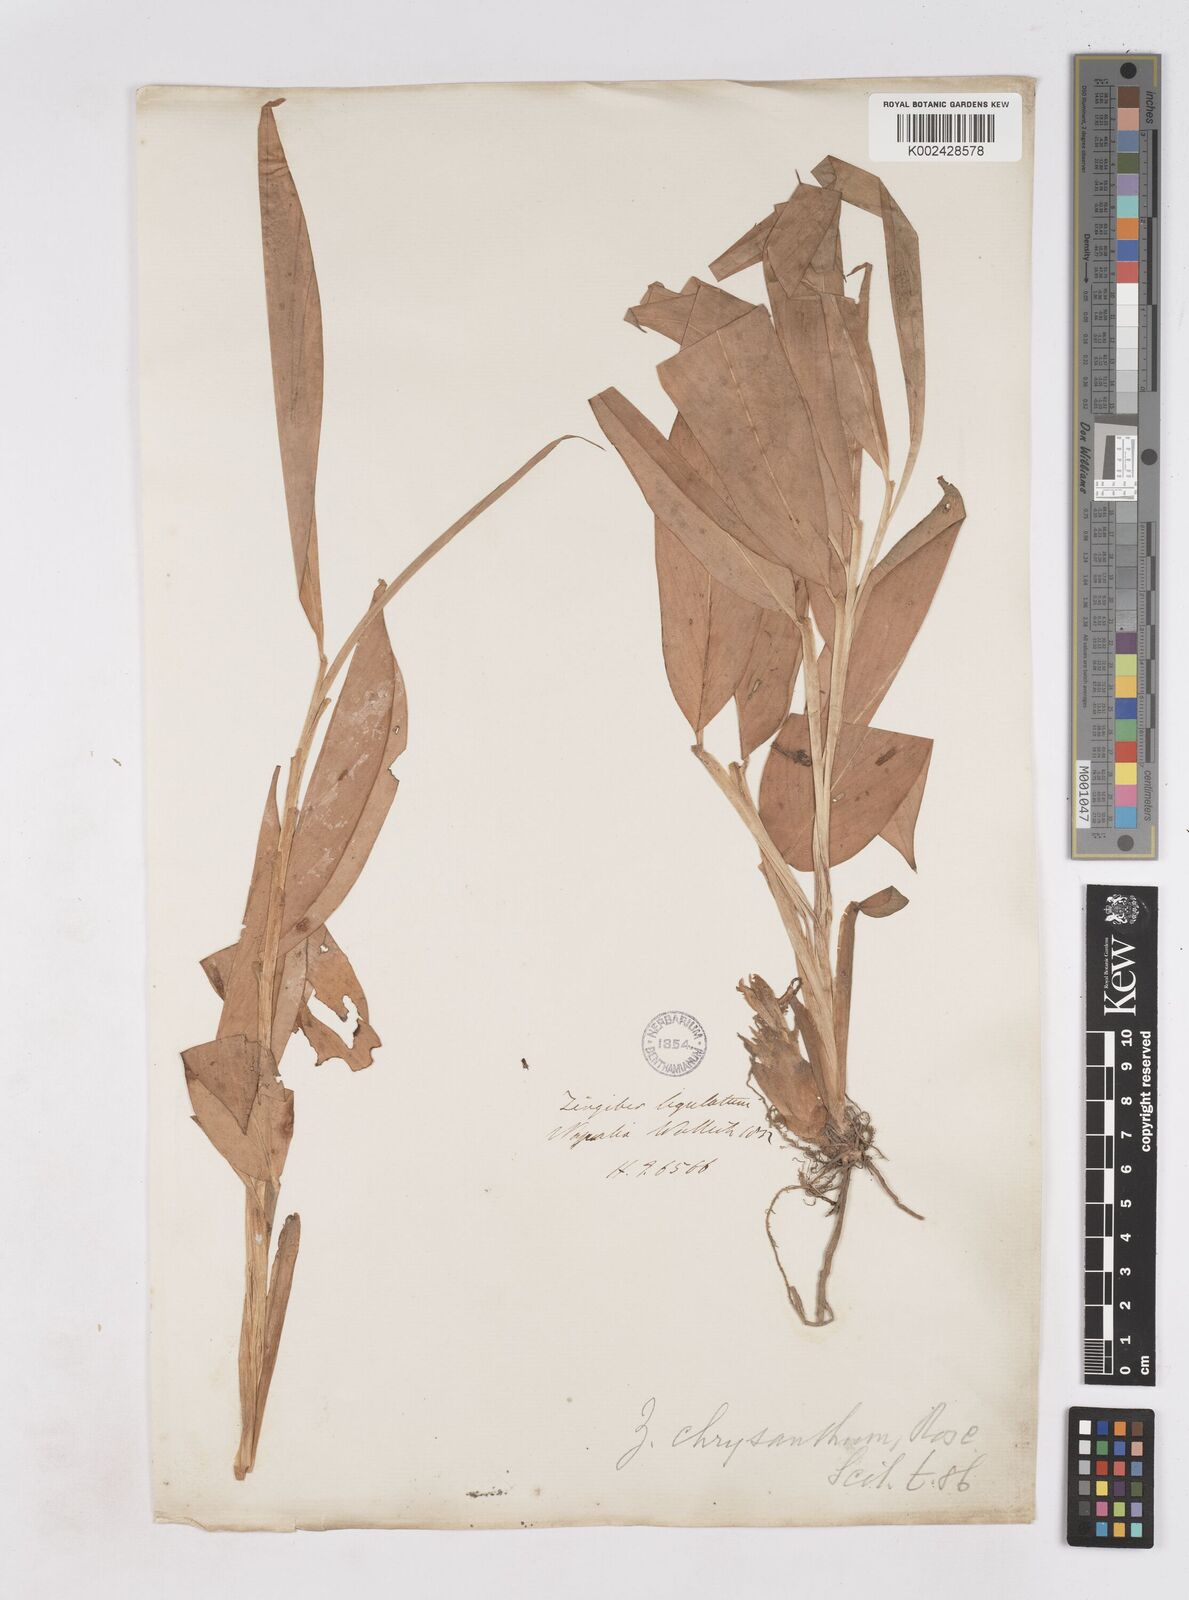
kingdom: Plantae
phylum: Tracheophyta
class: Liliopsida
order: Zingiberales
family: Zingiberaceae
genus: Zingiber
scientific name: Zingiber chrysanthum
